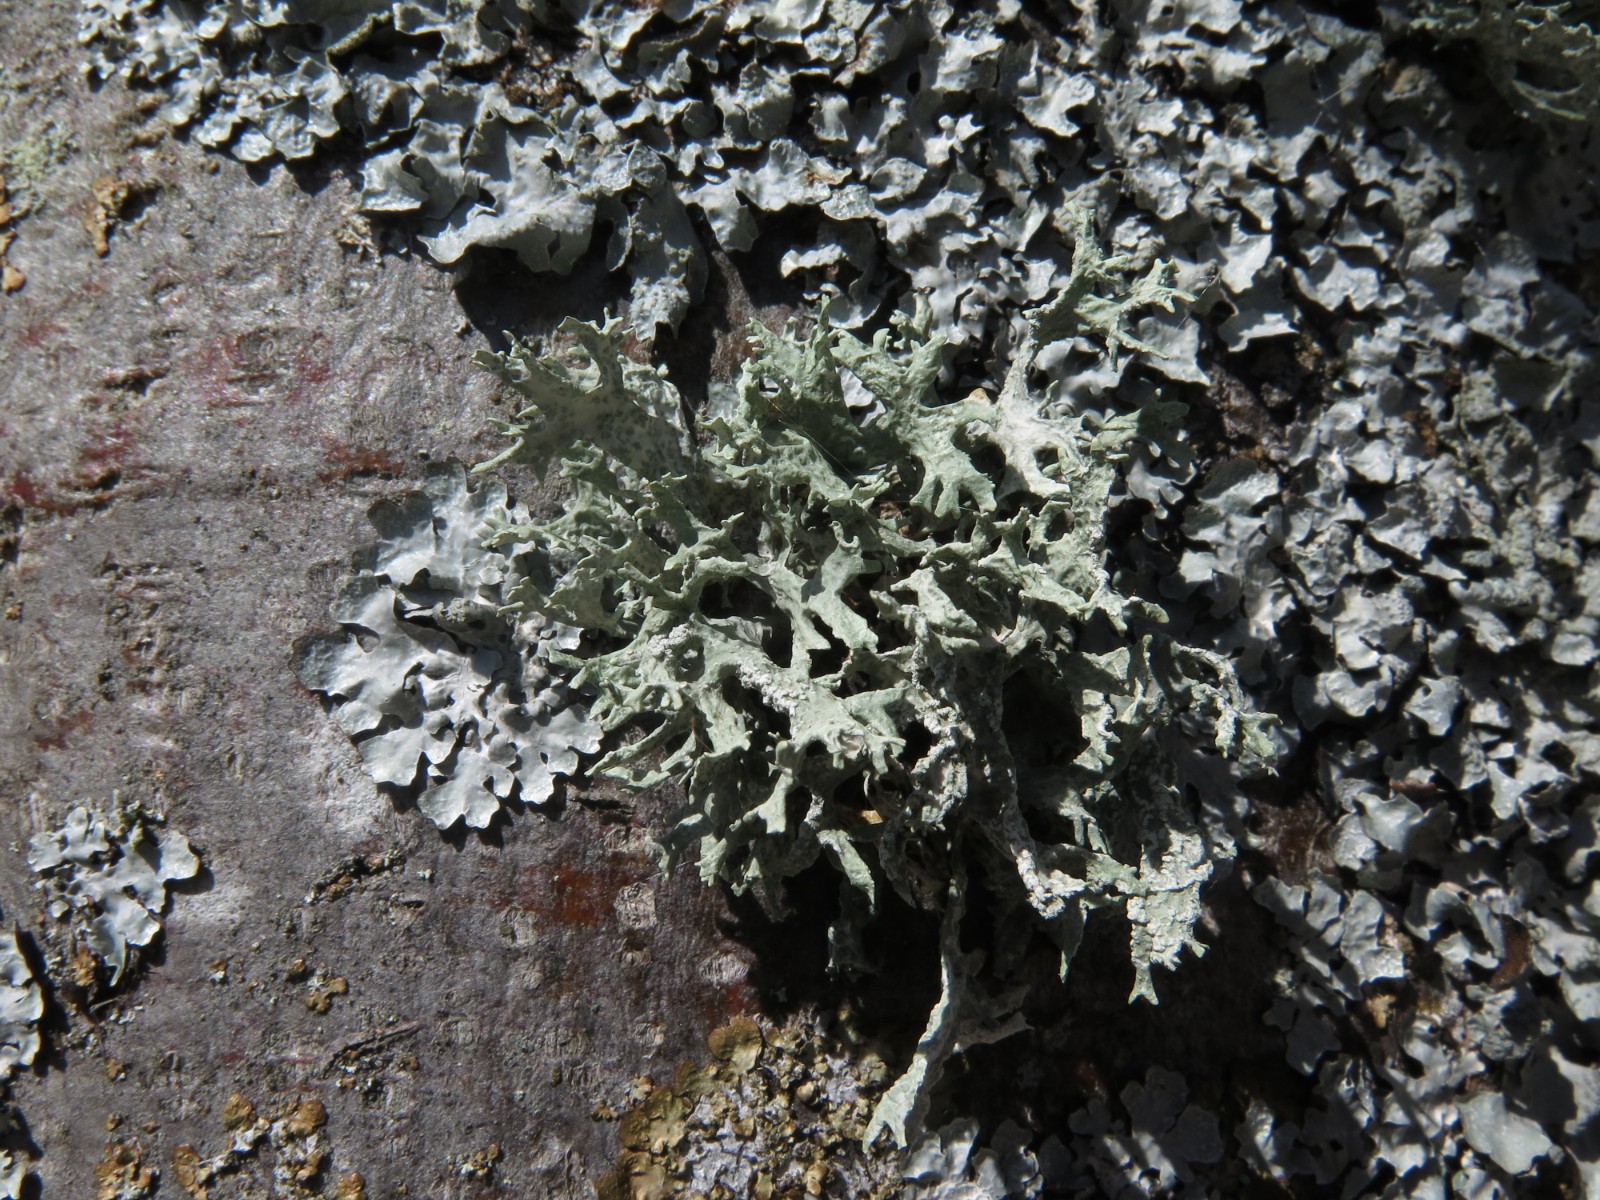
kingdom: Fungi
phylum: Ascomycota
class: Lecanoromycetes
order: Lecanorales
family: Parmeliaceae
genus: Parmelia
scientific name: Parmelia sulcata
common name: rynket skållav
